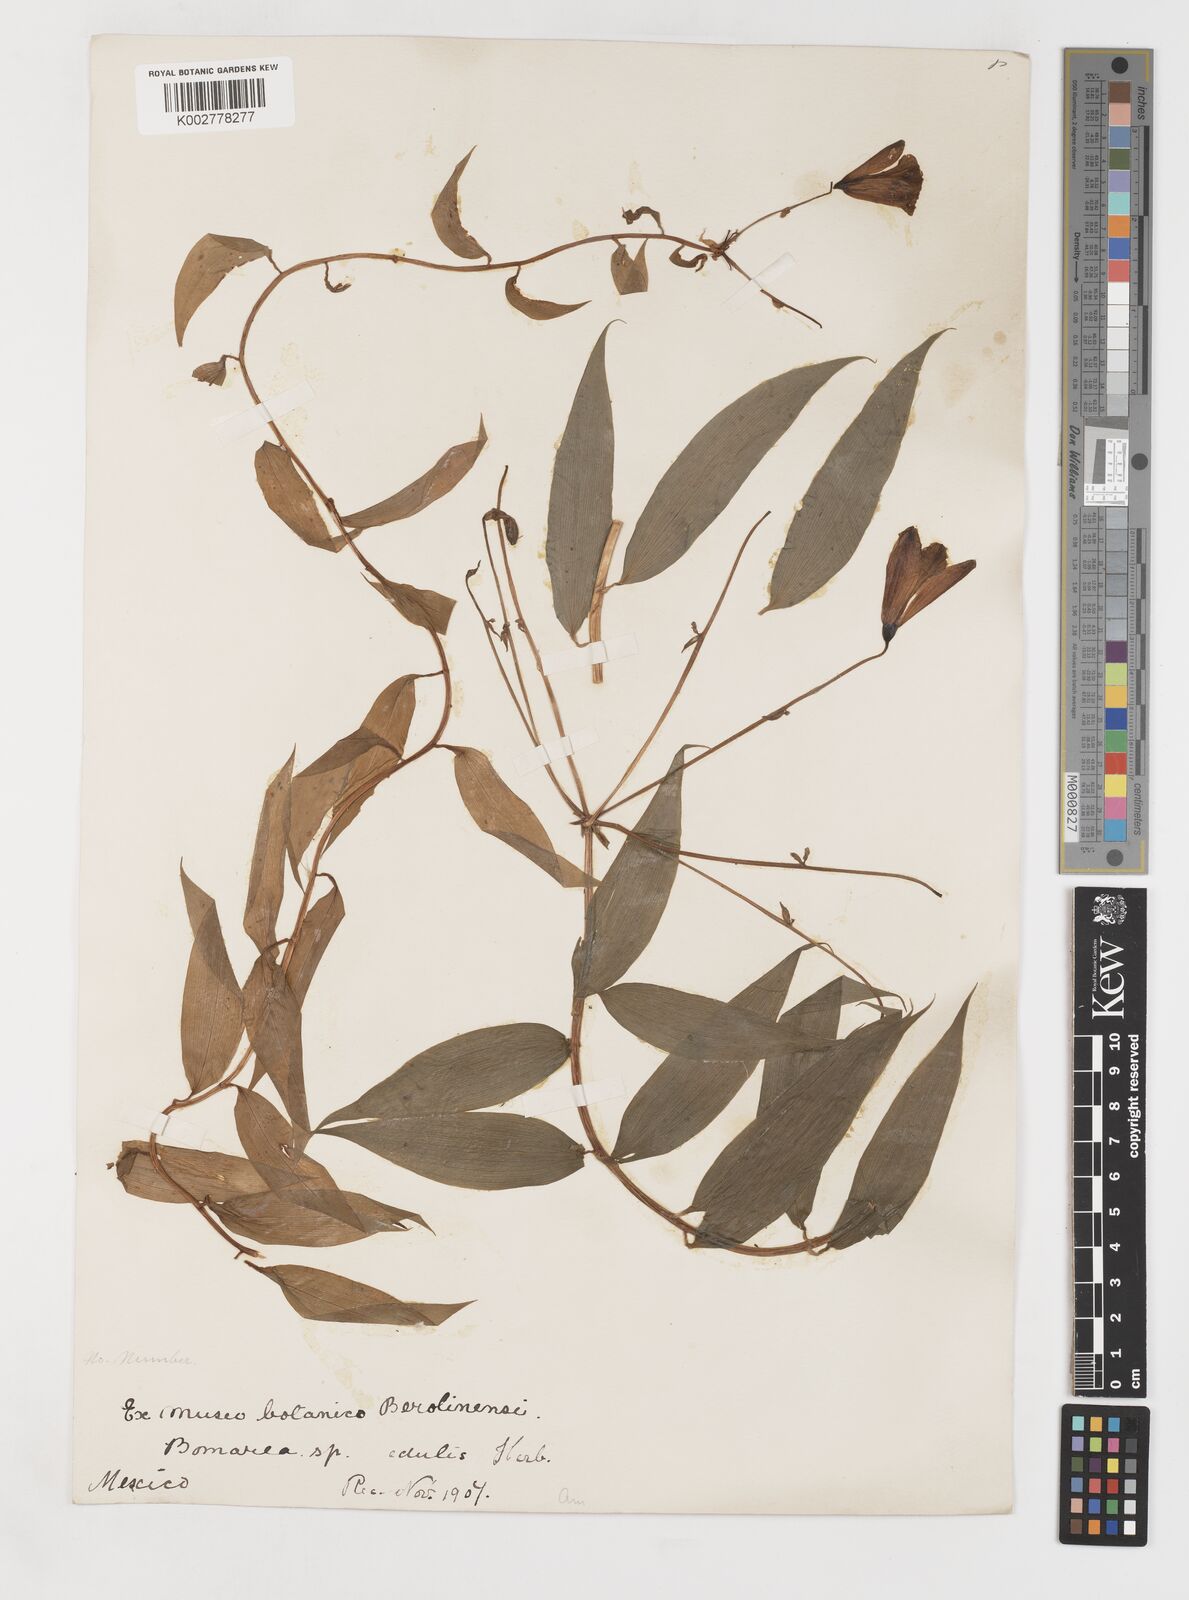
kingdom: Plantae
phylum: Tracheophyta
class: Liliopsida
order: Liliales
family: Alstroemeriaceae
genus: Bomarea
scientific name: Bomarea edulis
